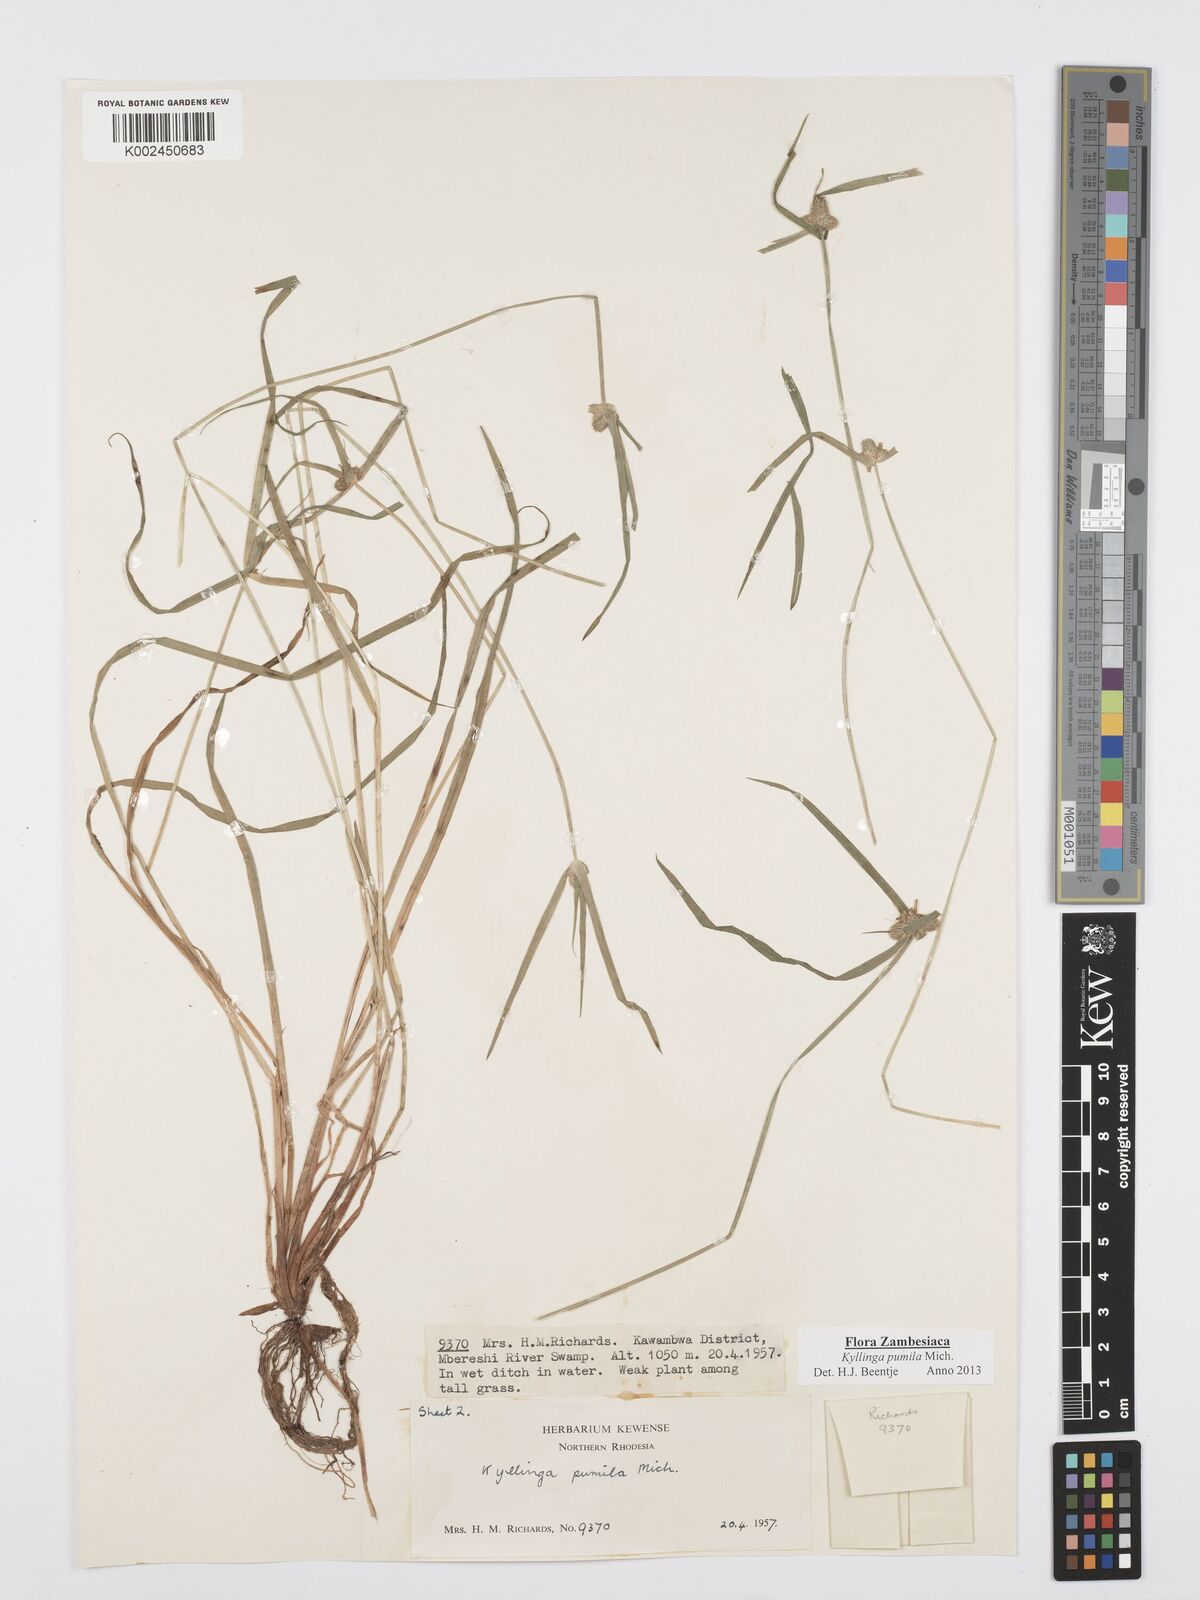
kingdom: Plantae
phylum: Tracheophyta
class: Liliopsida
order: Poales
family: Cyperaceae
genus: Cyperus
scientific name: Cyperus pumilus
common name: Low flatsedge
